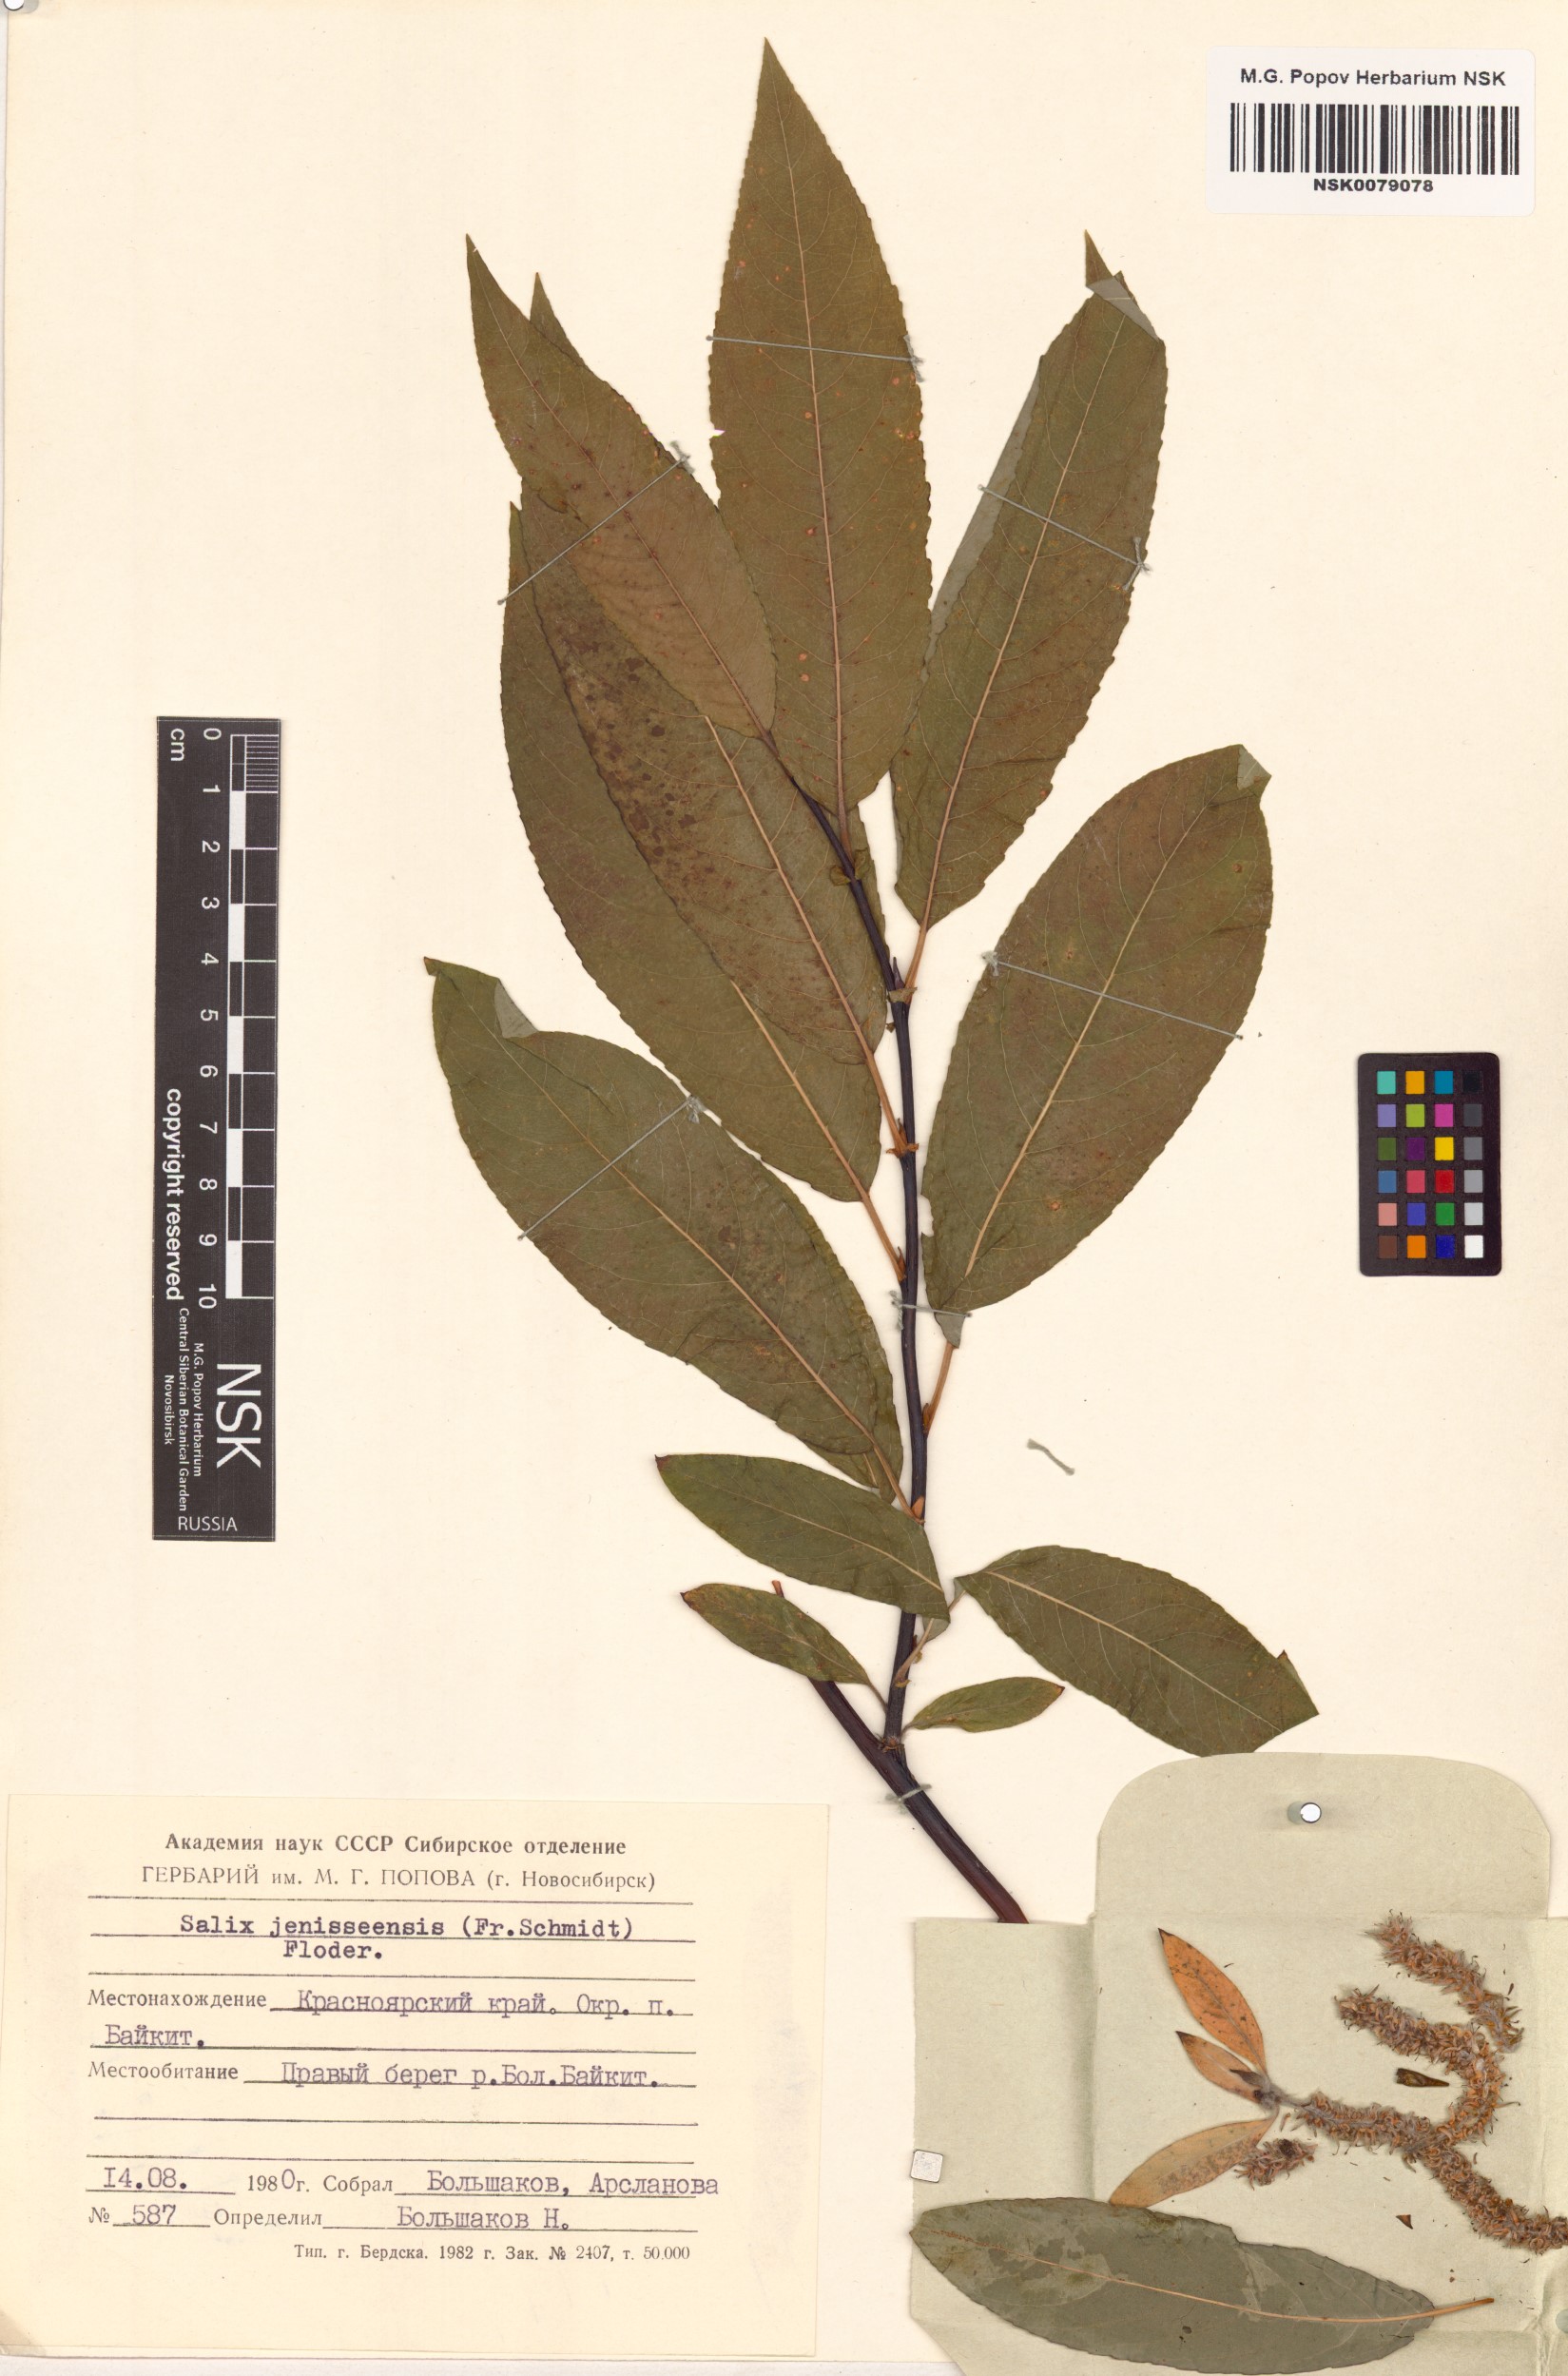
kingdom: Plantae
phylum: Tracheophyta
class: Magnoliopsida
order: Malpighiales
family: Salicaceae
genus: Salix
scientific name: Salix jenisseensis
